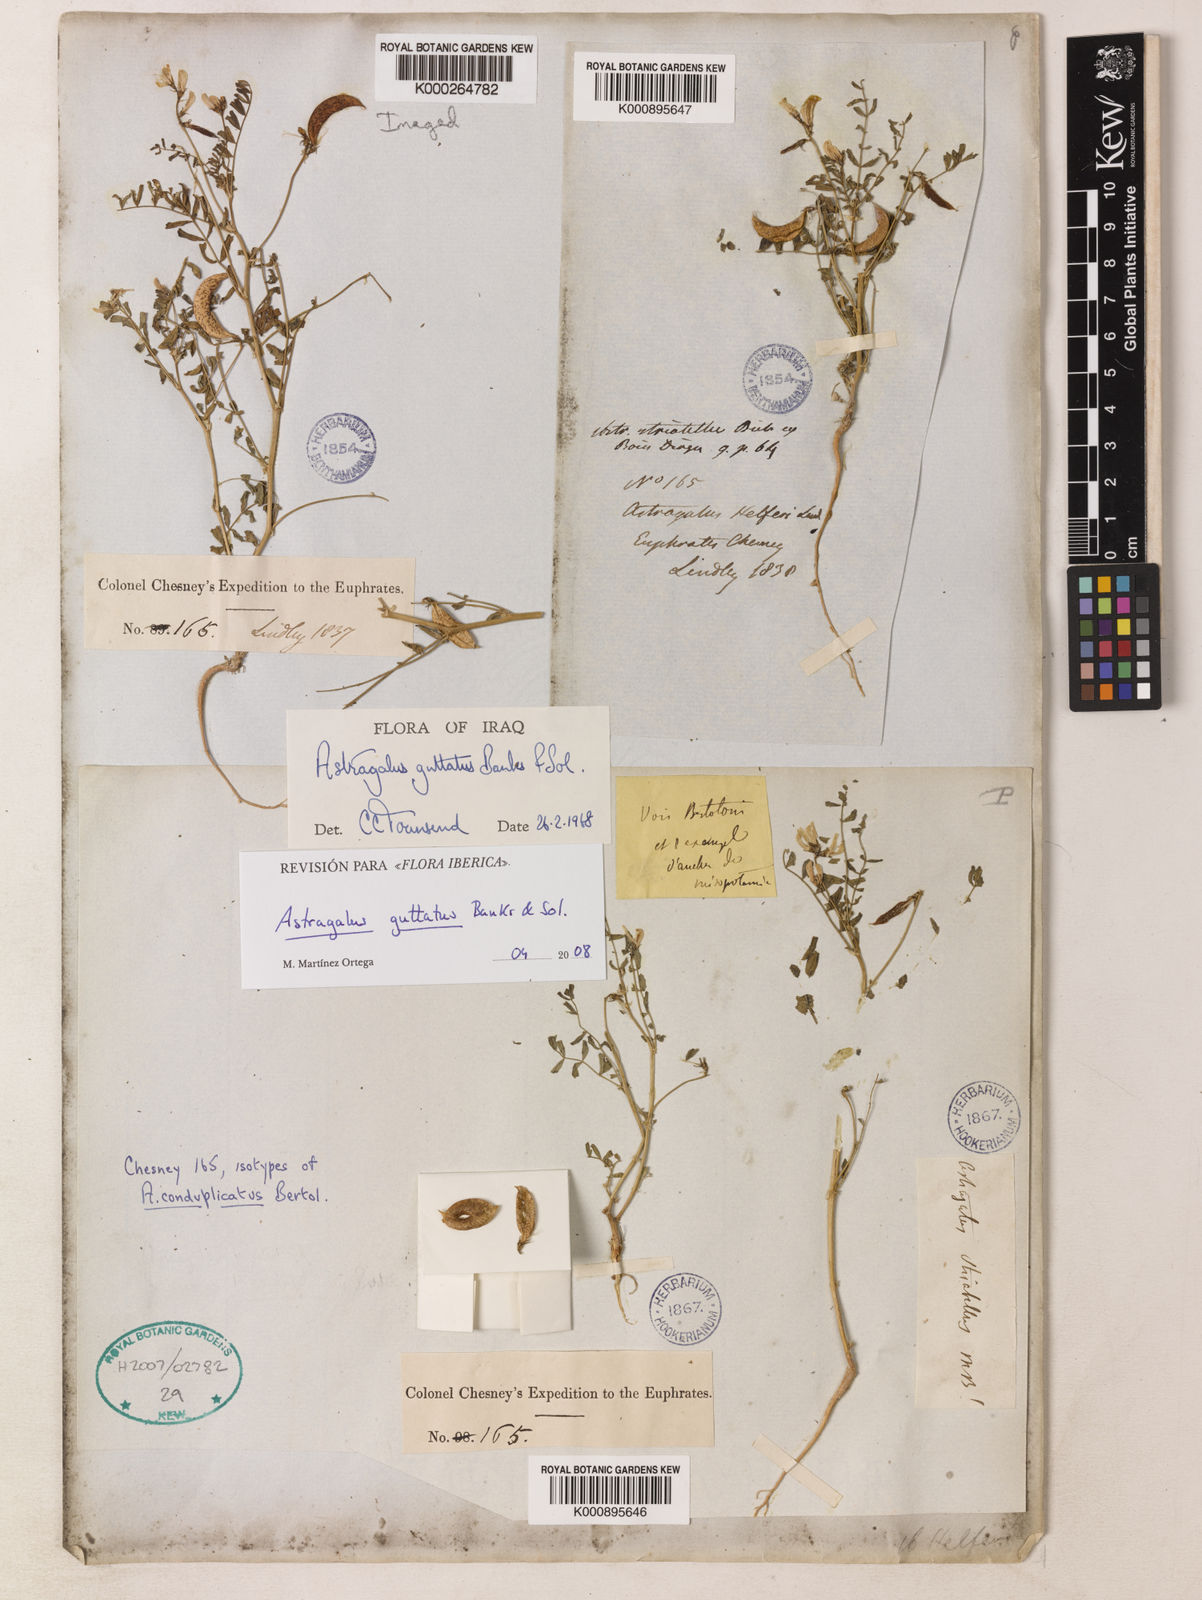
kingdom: Plantae
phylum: Tracheophyta
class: Magnoliopsida
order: Fabales
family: Fabaceae
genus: Astragalus
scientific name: Astragalus guttatus
